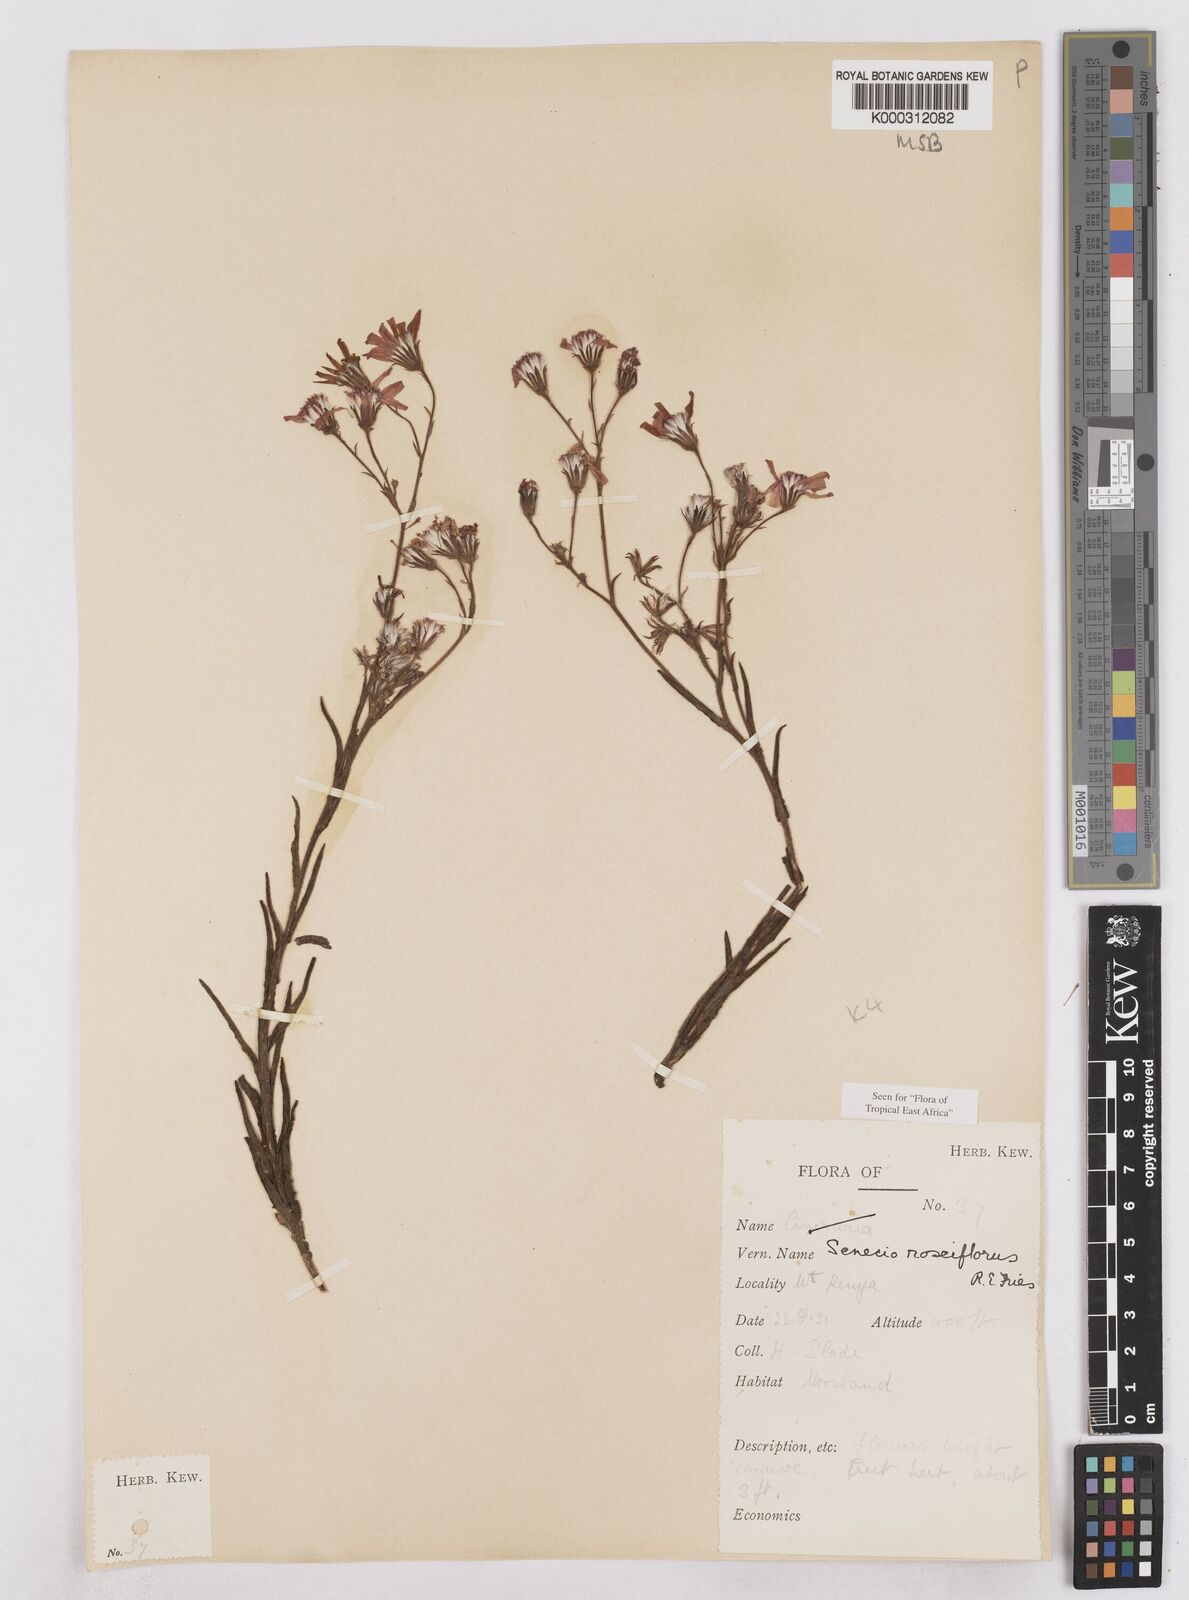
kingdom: Plantae
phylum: Tracheophyta
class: Magnoliopsida
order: Asterales
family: Asteraceae
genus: Senecio
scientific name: Senecio roseiflorus
